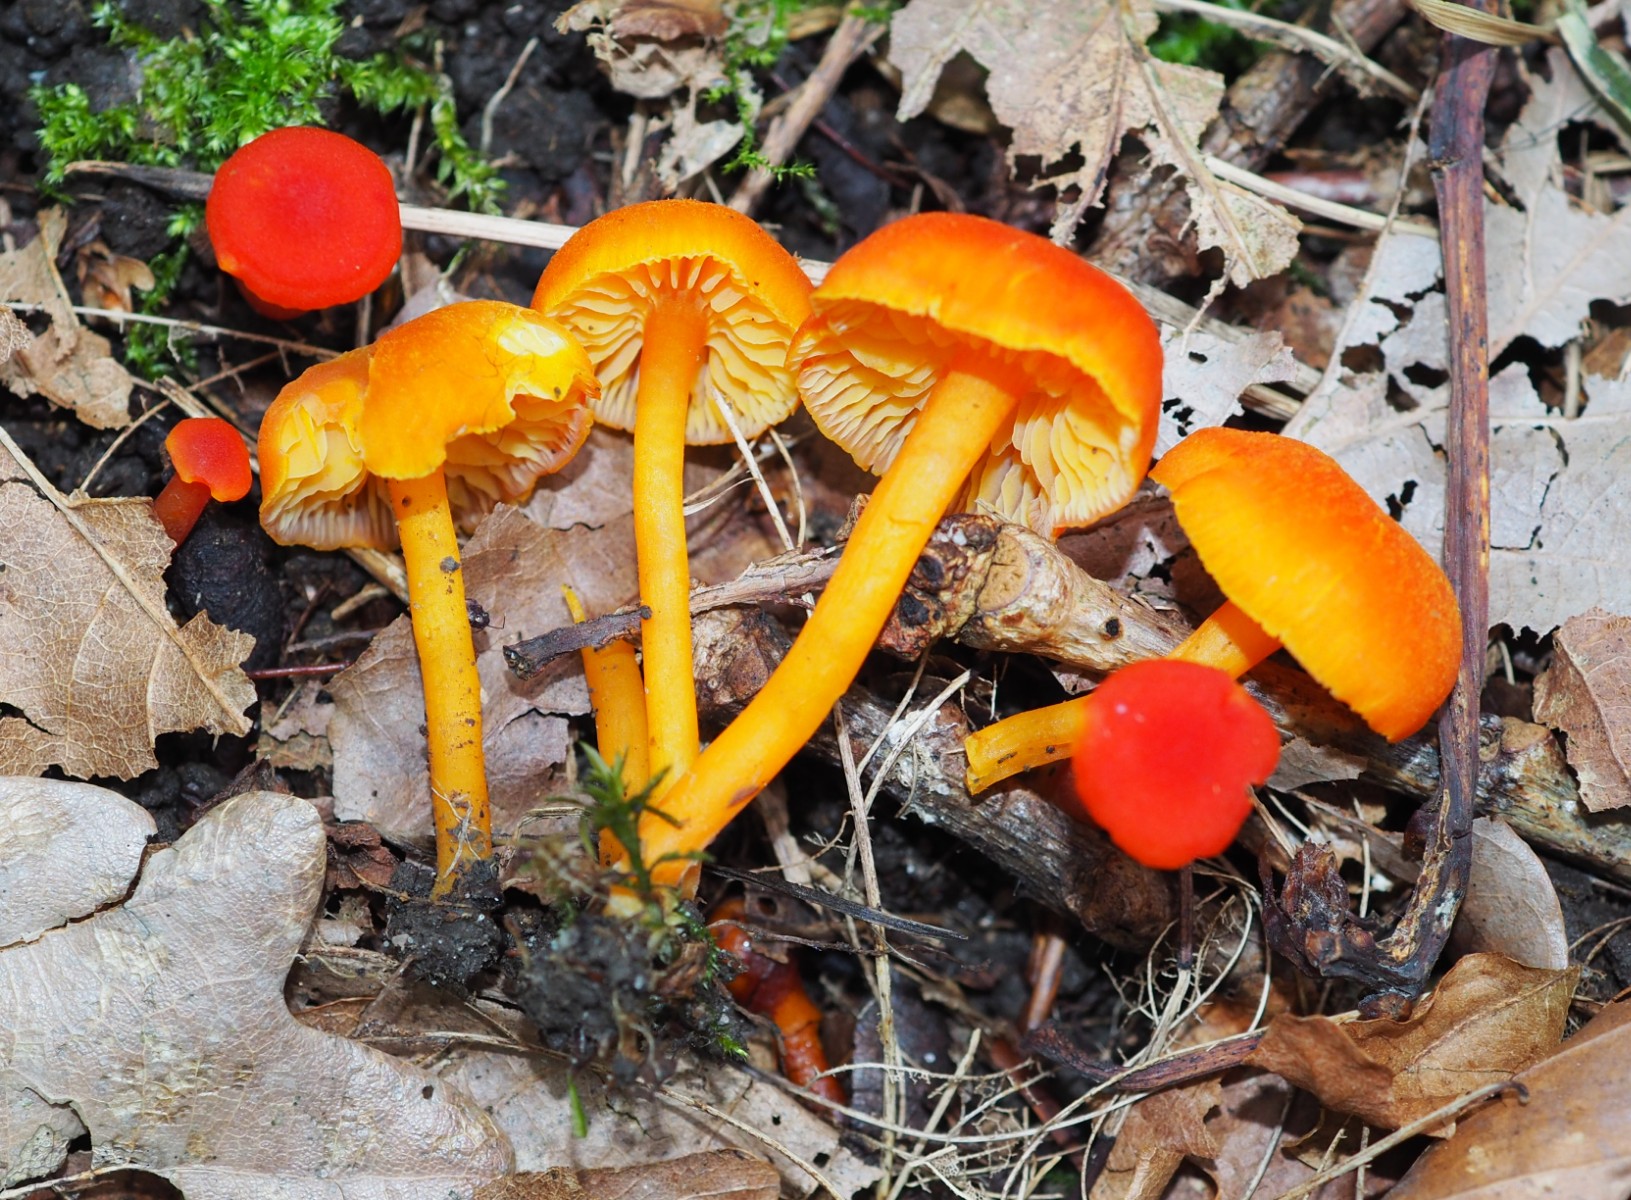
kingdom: Fungi
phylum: Basidiomycota
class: Agaricomycetes
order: Agaricales
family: Hygrophoraceae
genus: Hygrocybe
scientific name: Hygrocybe miniata
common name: mønje-vokshat
